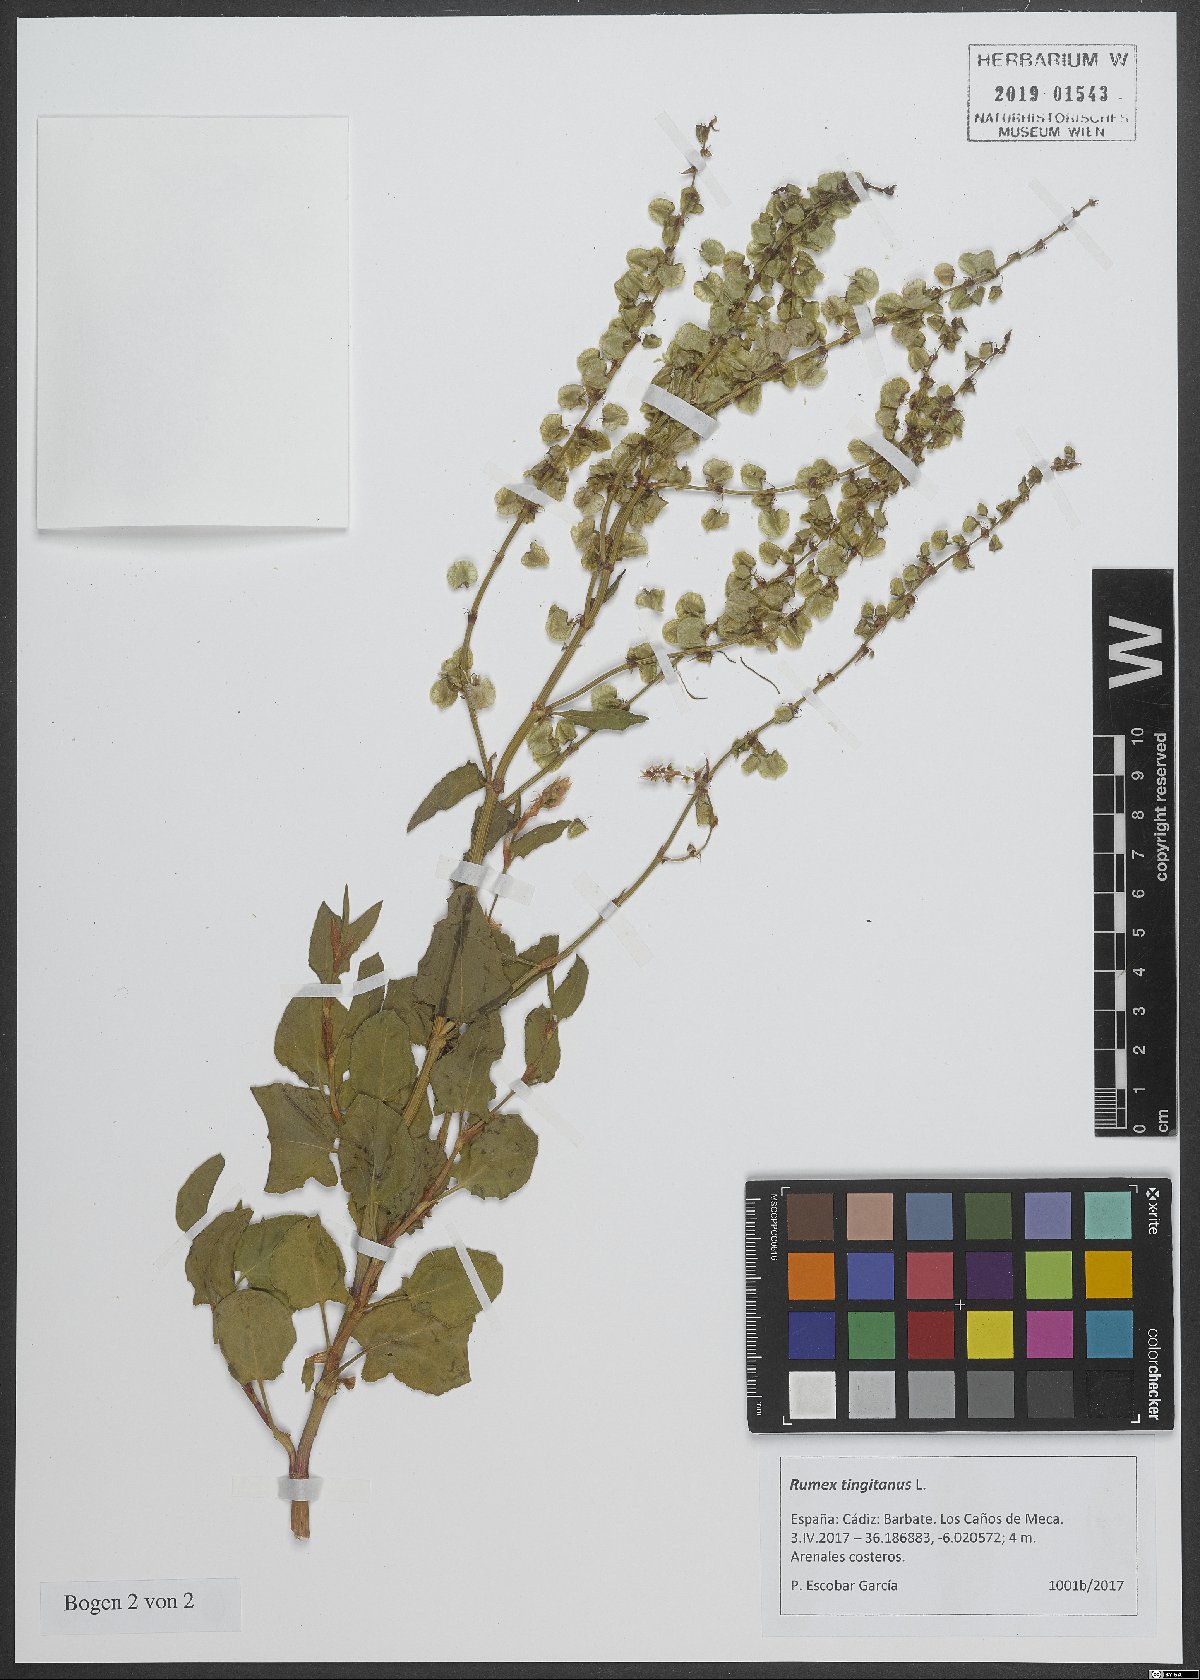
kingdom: Plantae
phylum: Tracheophyta
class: Magnoliopsida
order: Caryophyllales
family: Polygonaceae
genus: Rumex
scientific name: Rumex roseus
